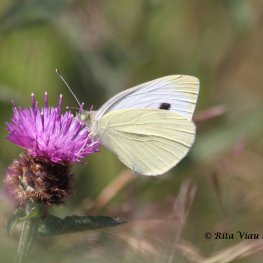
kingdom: Animalia
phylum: Arthropoda
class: Insecta
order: Lepidoptera
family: Pieridae
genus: Pieris
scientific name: Pieris rapae
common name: Cabbage White
